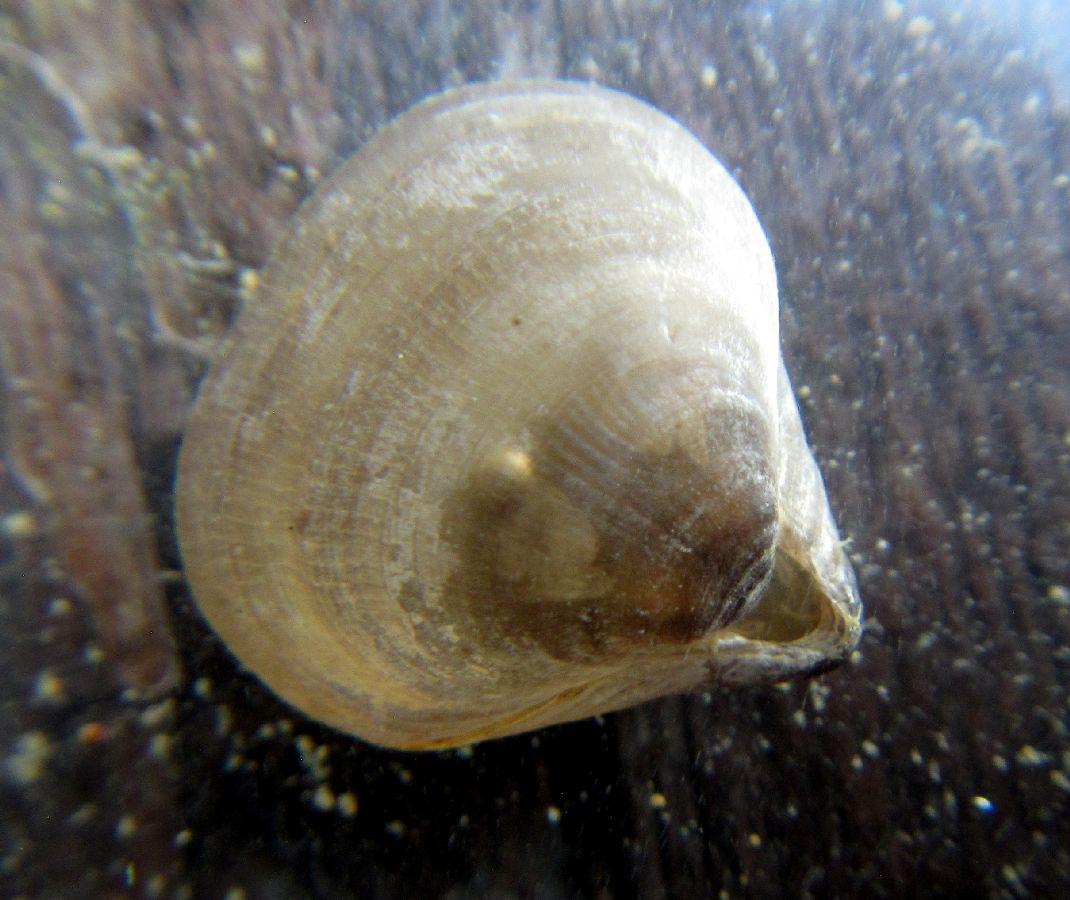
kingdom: Animalia
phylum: Brachiopoda
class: Rhynchonellata
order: Rhynchonellida
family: Hemithirididae
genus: Hemithiris
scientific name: Hemithiris psittacea
